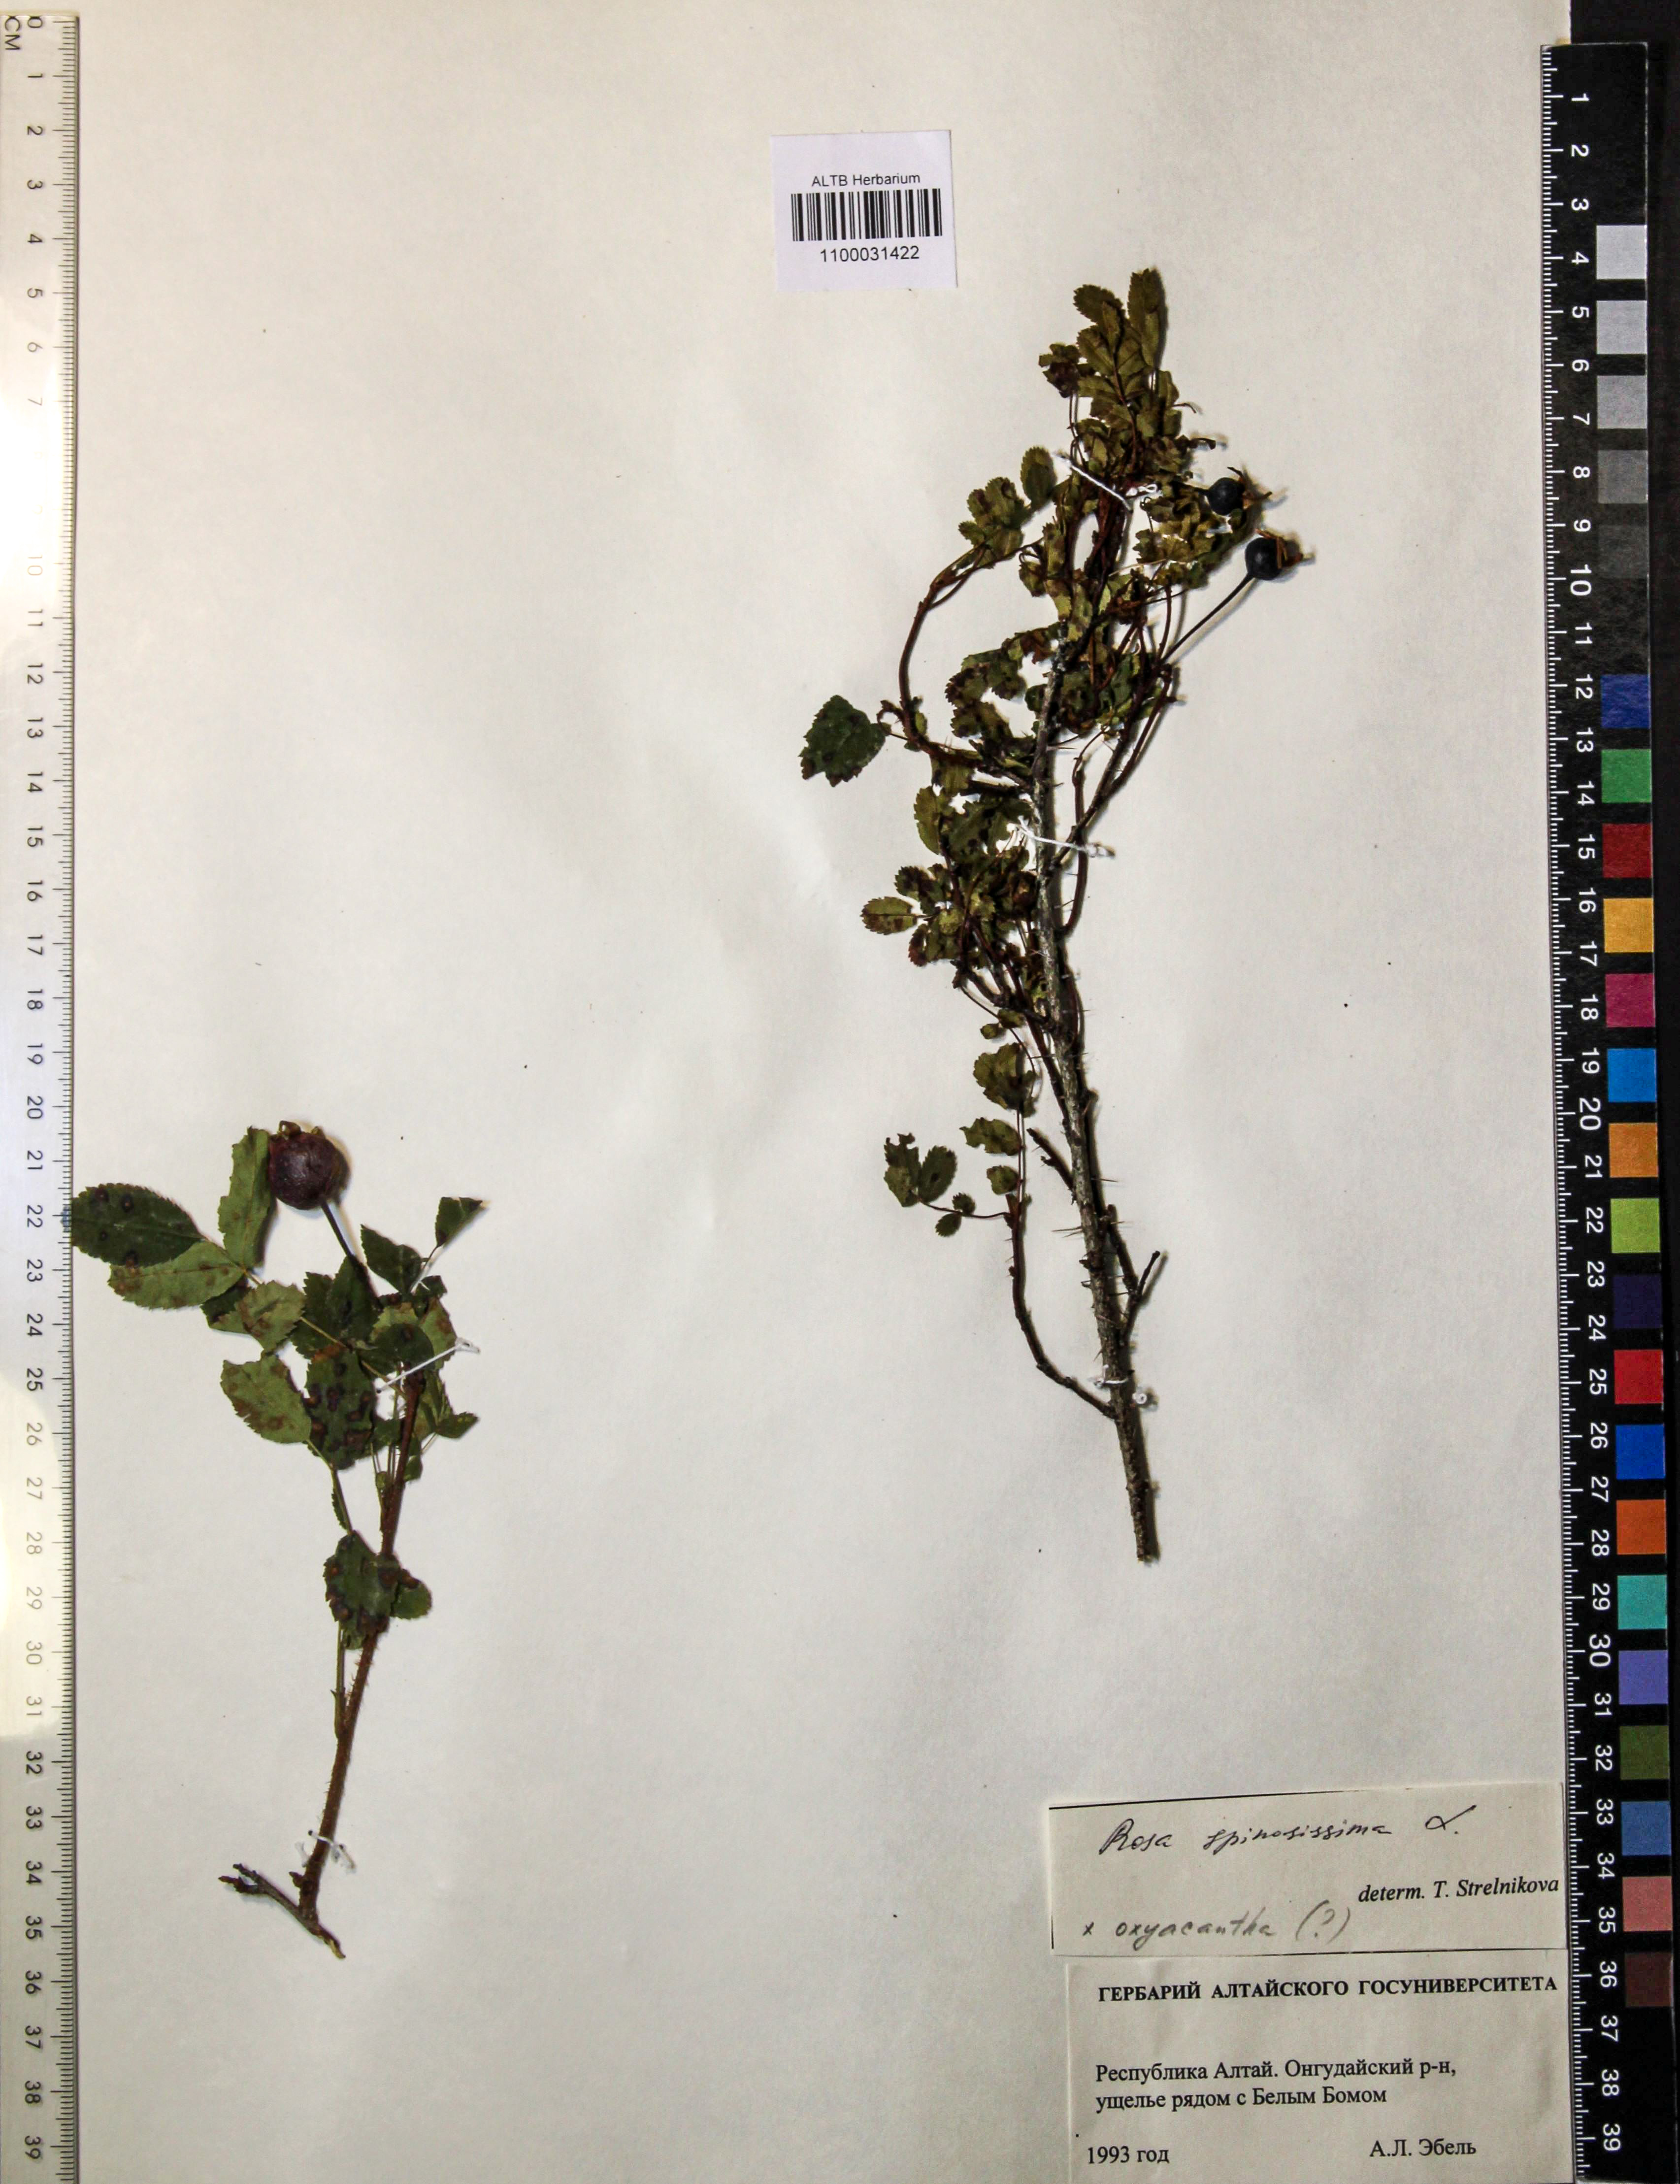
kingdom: Plantae
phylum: Tracheophyta
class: Magnoliopsida
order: Rosales
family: Rosaceae
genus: Rosa
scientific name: Rosa spinosissima
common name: Burnet rose
